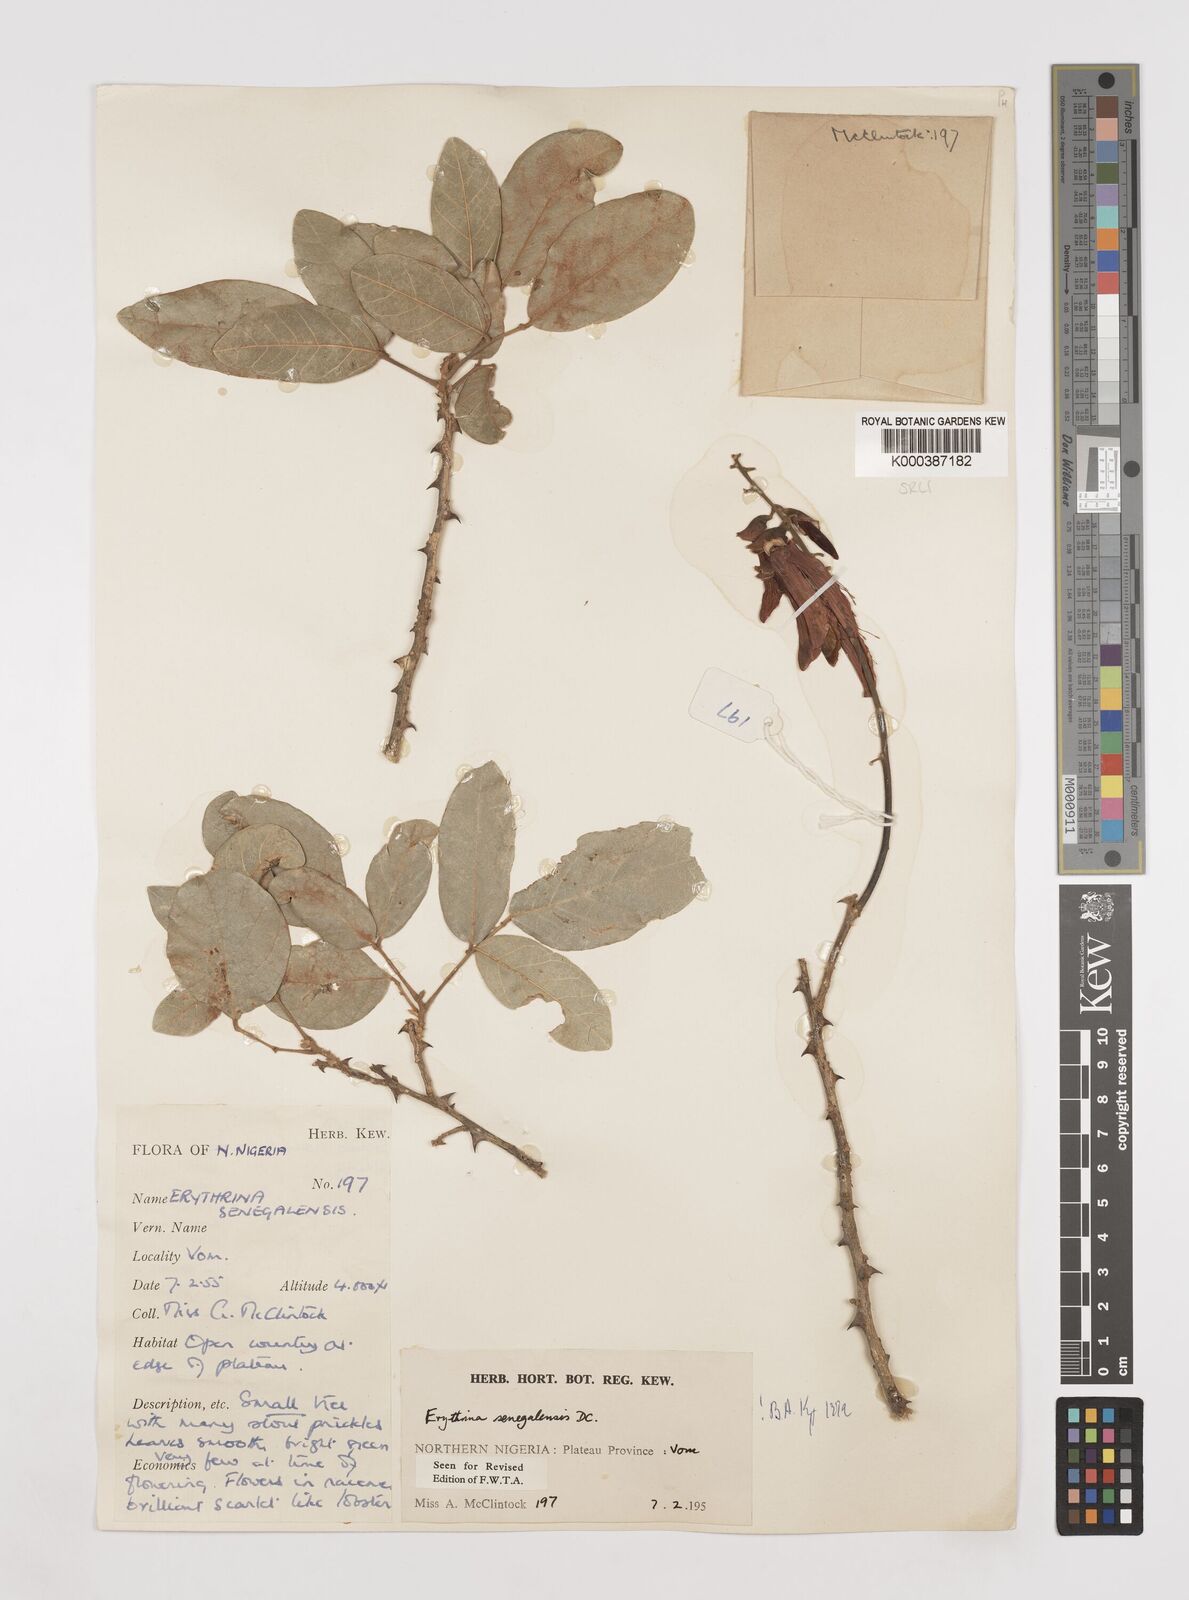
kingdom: Plantae
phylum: Tracheophyta
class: Magnoliopsida
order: Fabales
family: Fabaceae
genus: Erythrina
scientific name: Erythrina senegalensis
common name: Senegal coraltree
